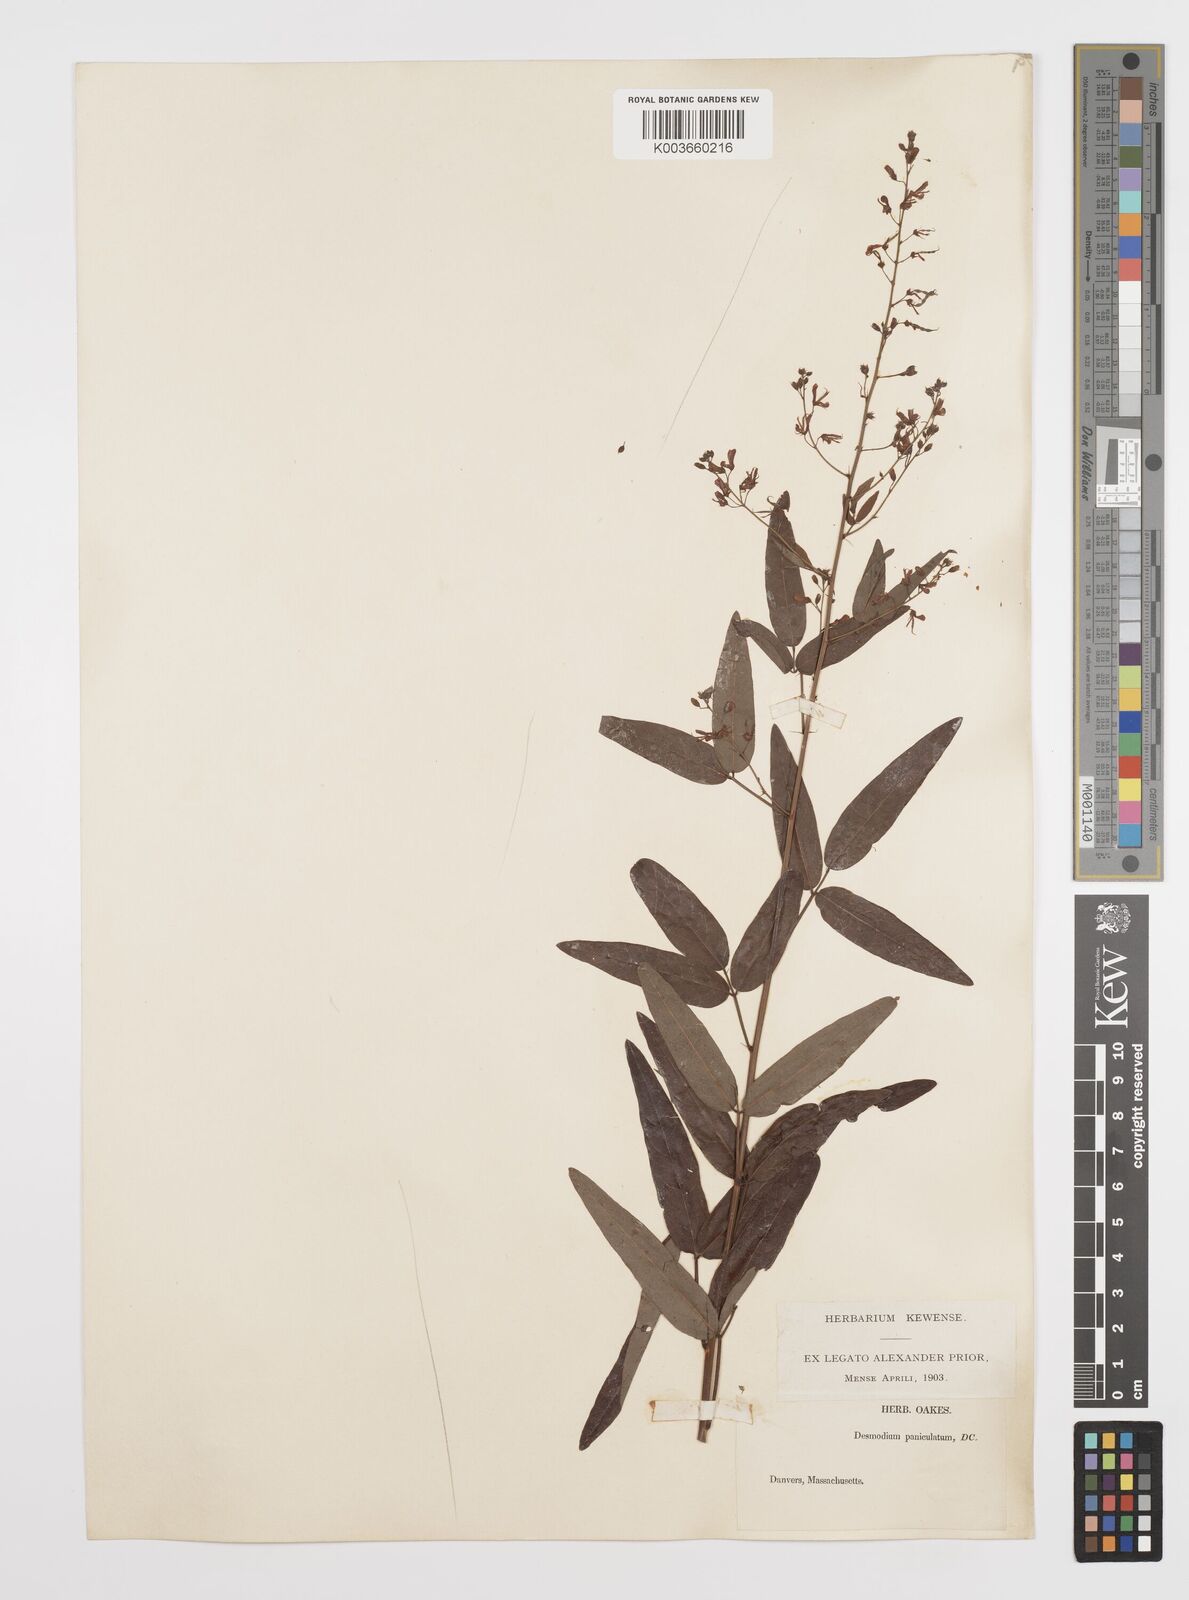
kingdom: Plantae
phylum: Tracheophyta
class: Magnoliopsida
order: Fabales
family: Fabaceae
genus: Desmodium
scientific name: Desmodium paniculatum
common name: Panicled tick-clover
